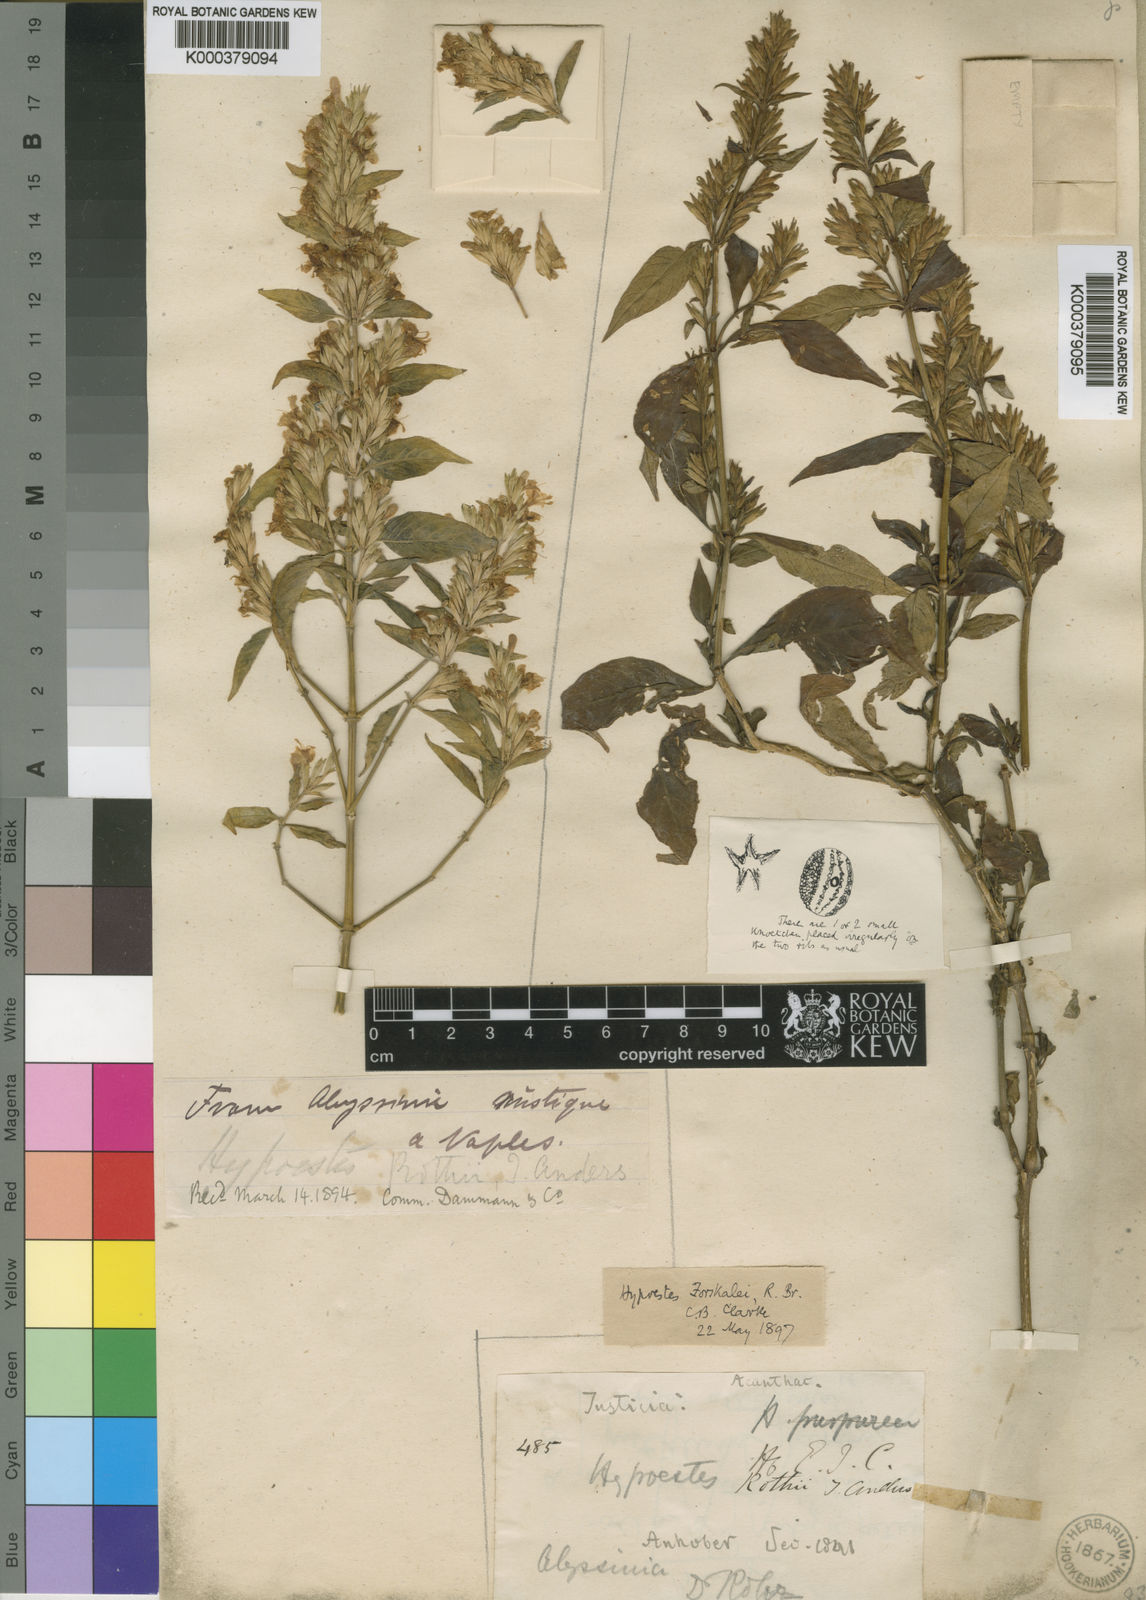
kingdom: Plantae
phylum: Tracheophyta
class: Magnoliopsida
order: Lamiales
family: Acanthaceae
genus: Hypoestes
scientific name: Hypoestes
